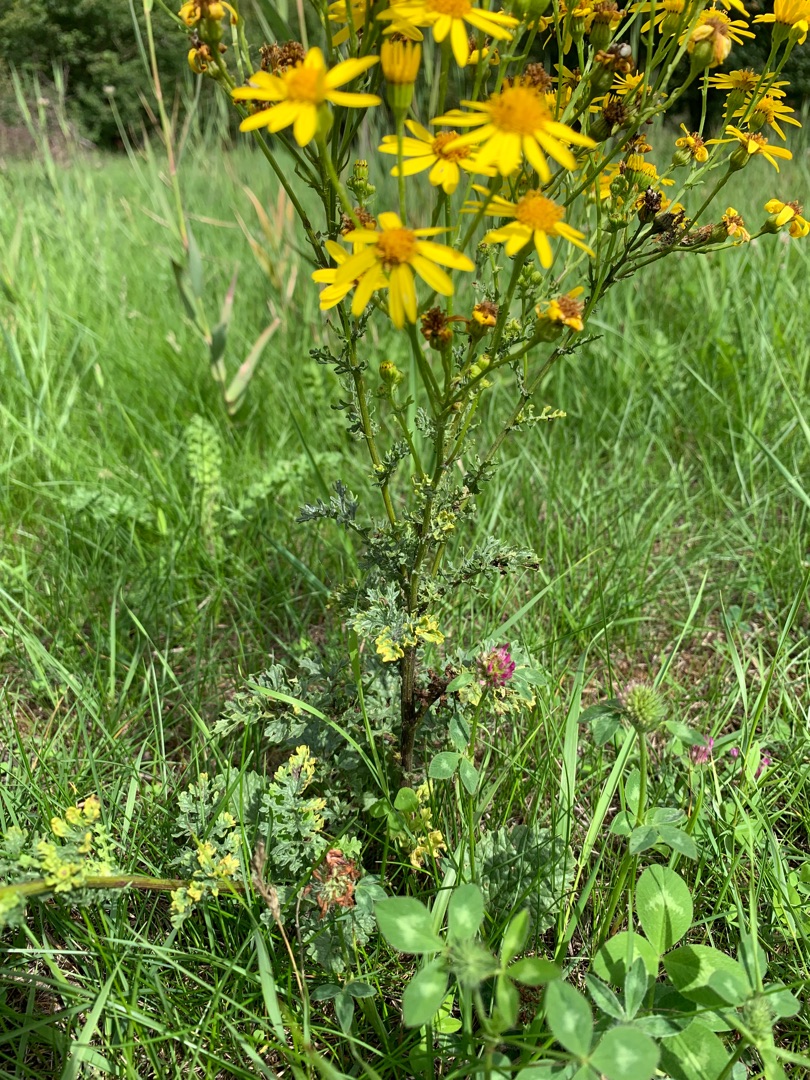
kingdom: Plantae
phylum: Tracheophyta
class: Magnoliopsida
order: Asterales
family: Asteraceae
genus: Jacobaea
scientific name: Jacobaea vulgaris
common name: Eng-brandbæger
